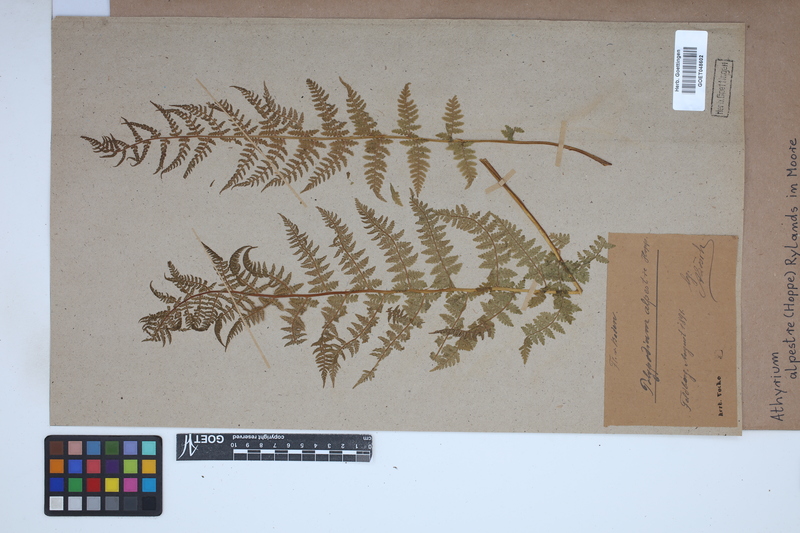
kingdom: Plantae
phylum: Tracheophyta
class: Polypodiopsida
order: Polypodiales
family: Athyriaceae
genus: Pseudathyrium
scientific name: Pseudathyrium alpestre
